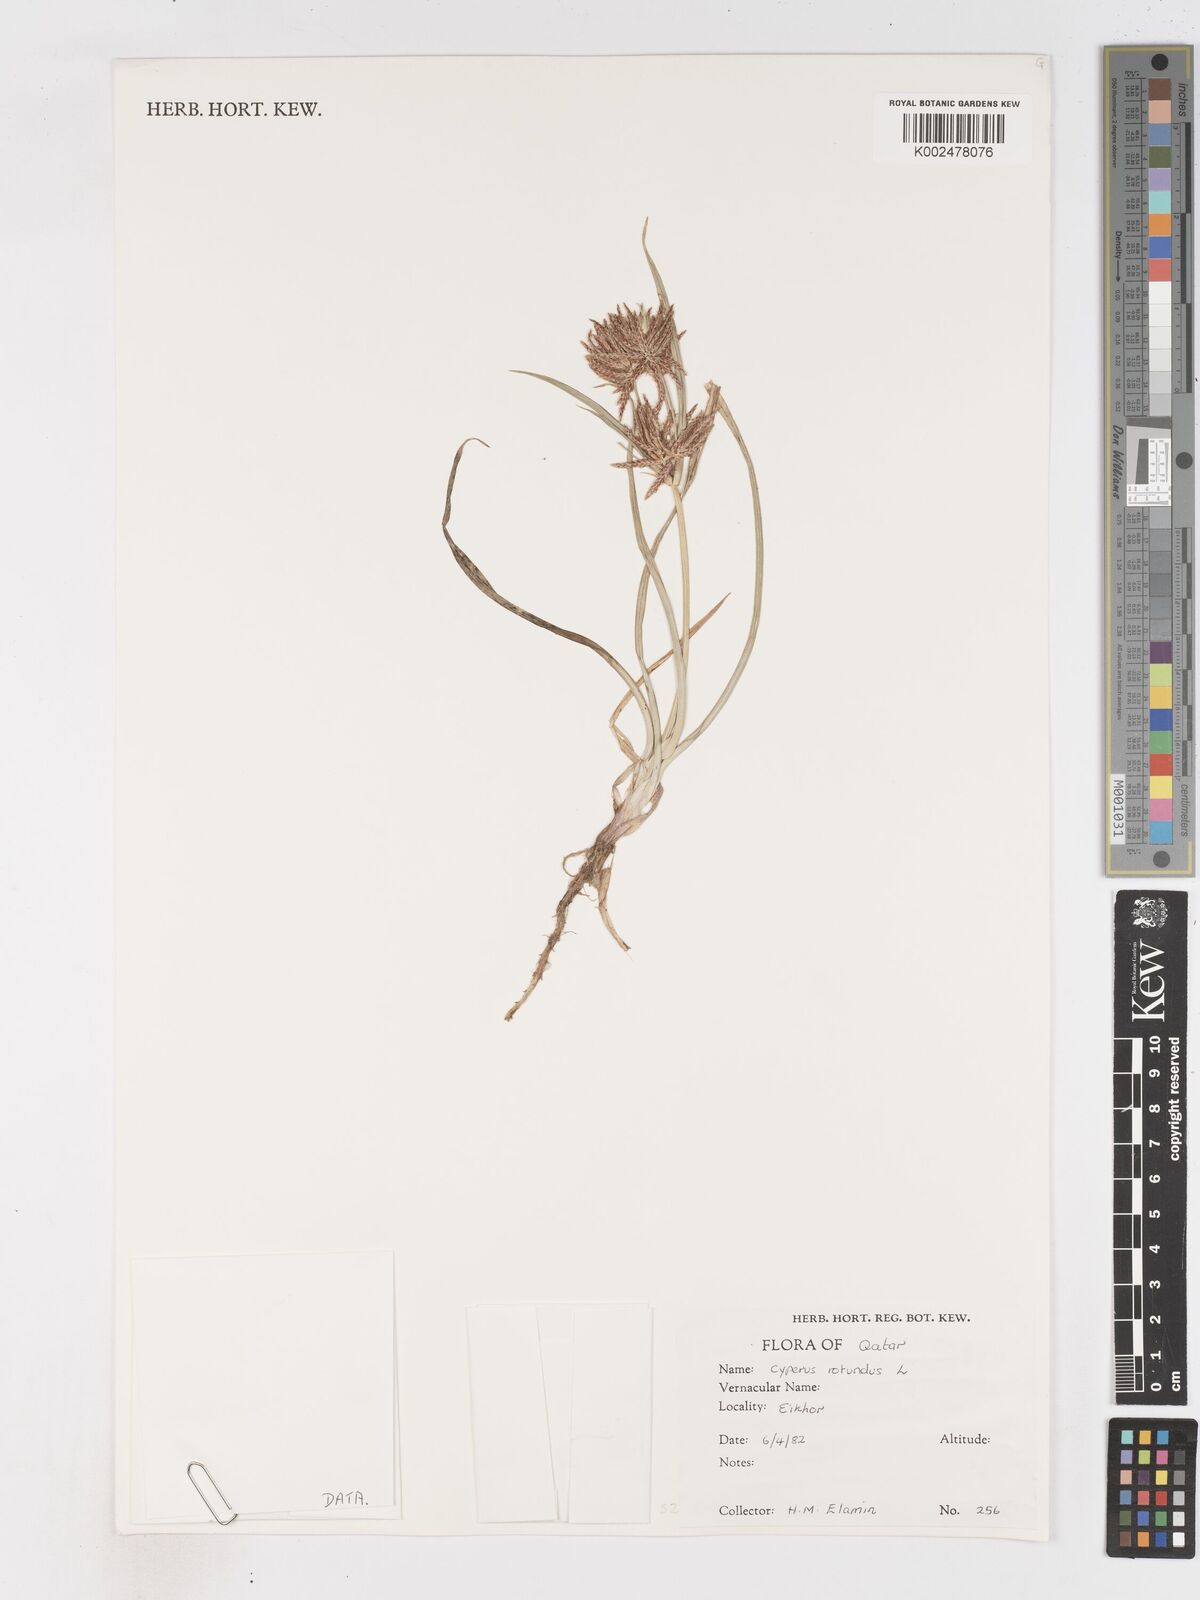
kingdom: Plantae
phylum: Tracheophyta
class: Liliopsida
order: Poales
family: Cyperaceae
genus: Cyperus
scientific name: Cyperus rotundus
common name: Nutgrass
